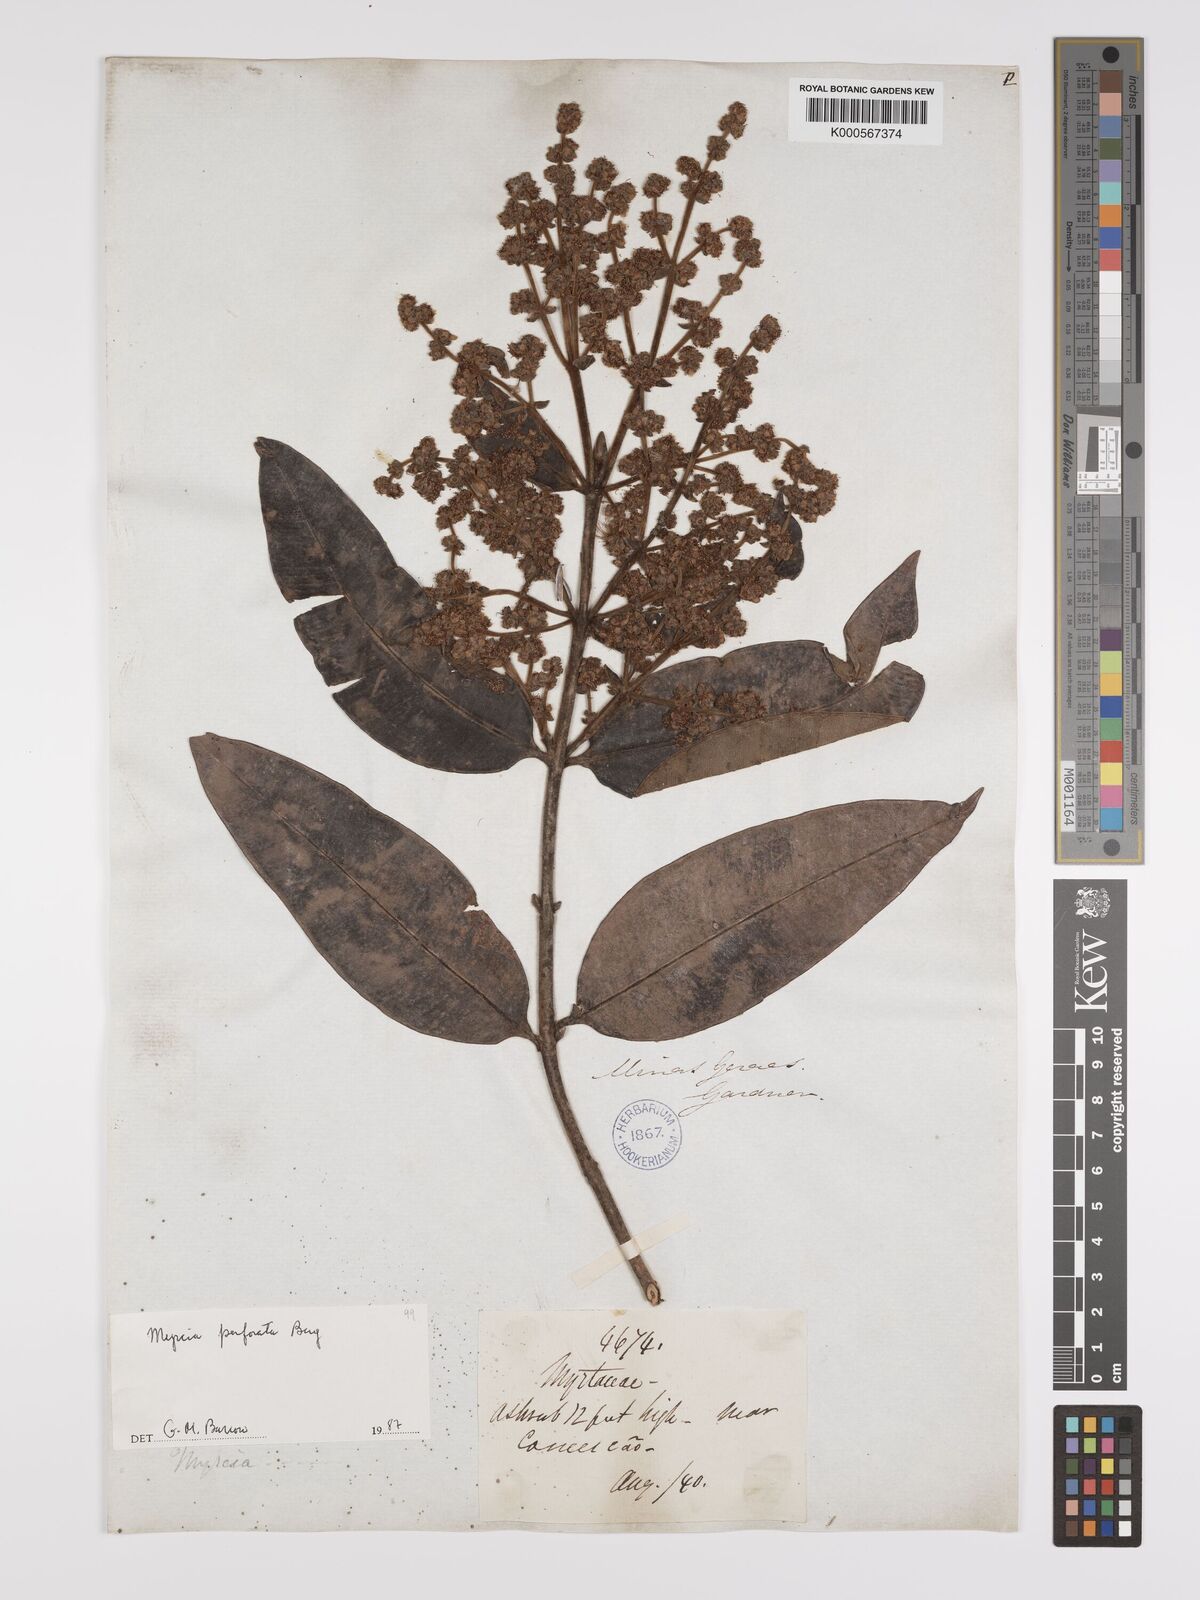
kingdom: Plantae
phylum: Tracheophyta
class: Magnoliopsida
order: Myrtales
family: Myrtaceae
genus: Myrcia
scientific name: Myrcia perforata
